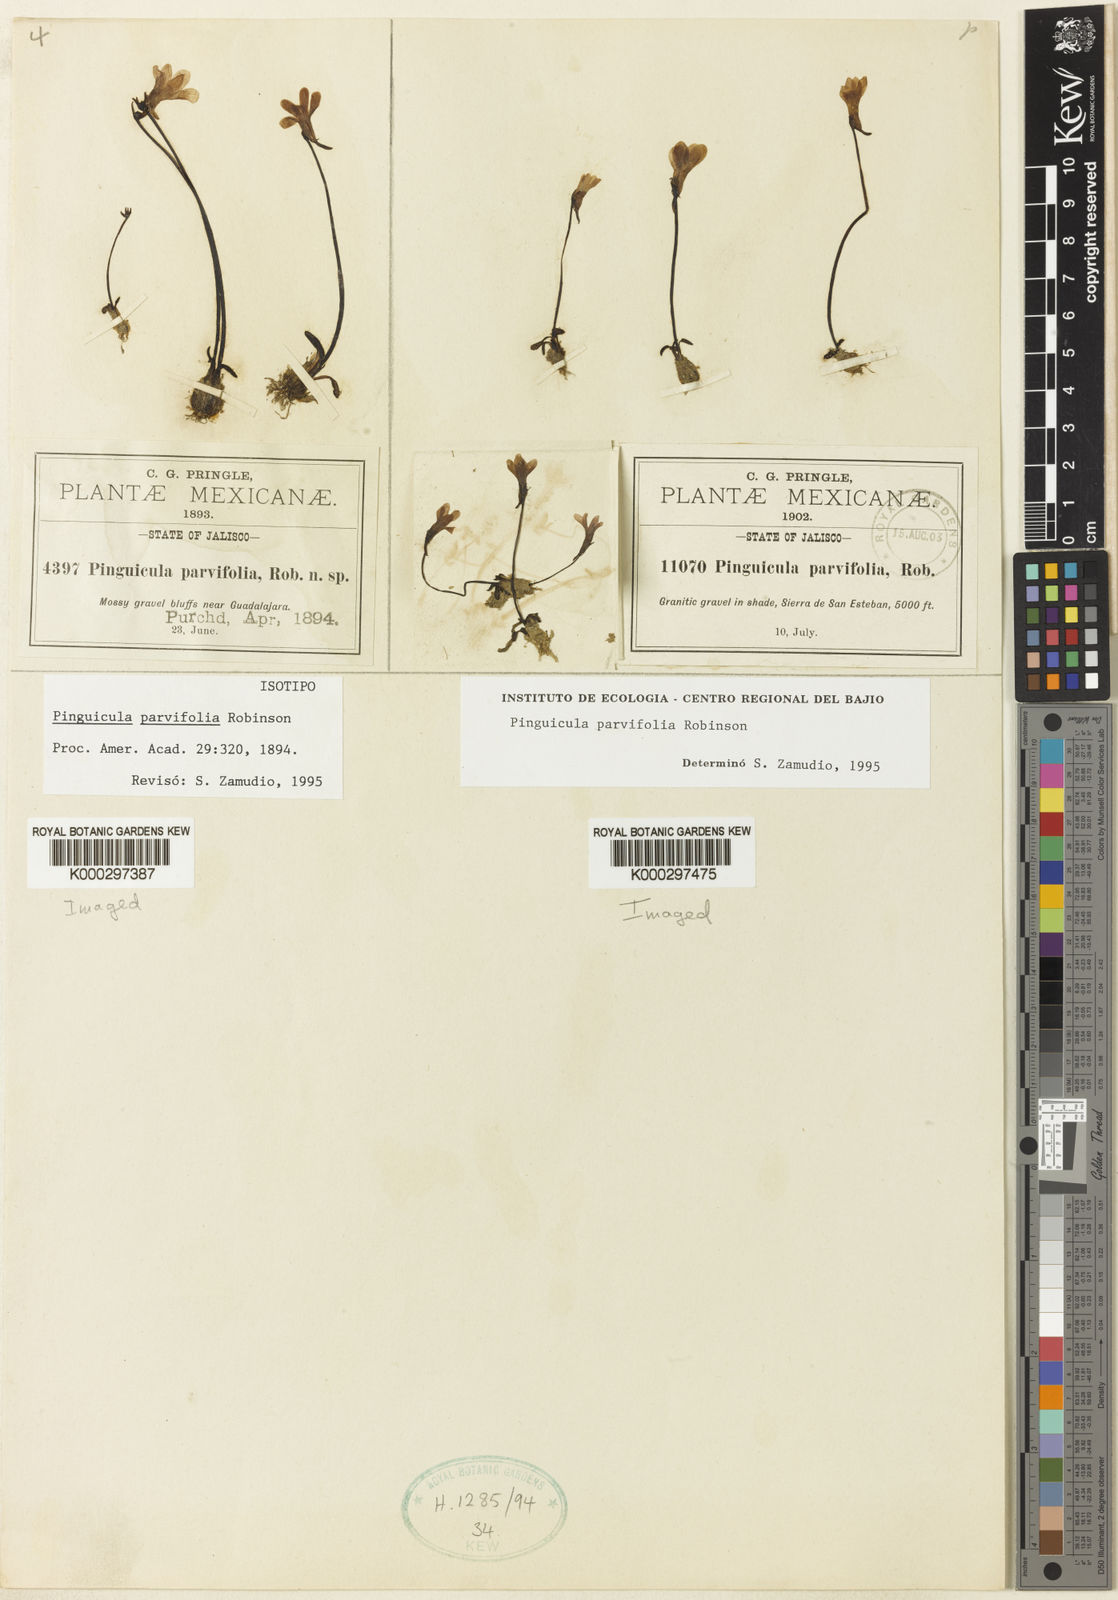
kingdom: Plantae
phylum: Tracheophyta
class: Magnoliopsida
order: Lamiales
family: Lentibulariaceae
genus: Pinguicula
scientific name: Pinguicula parvifolia
